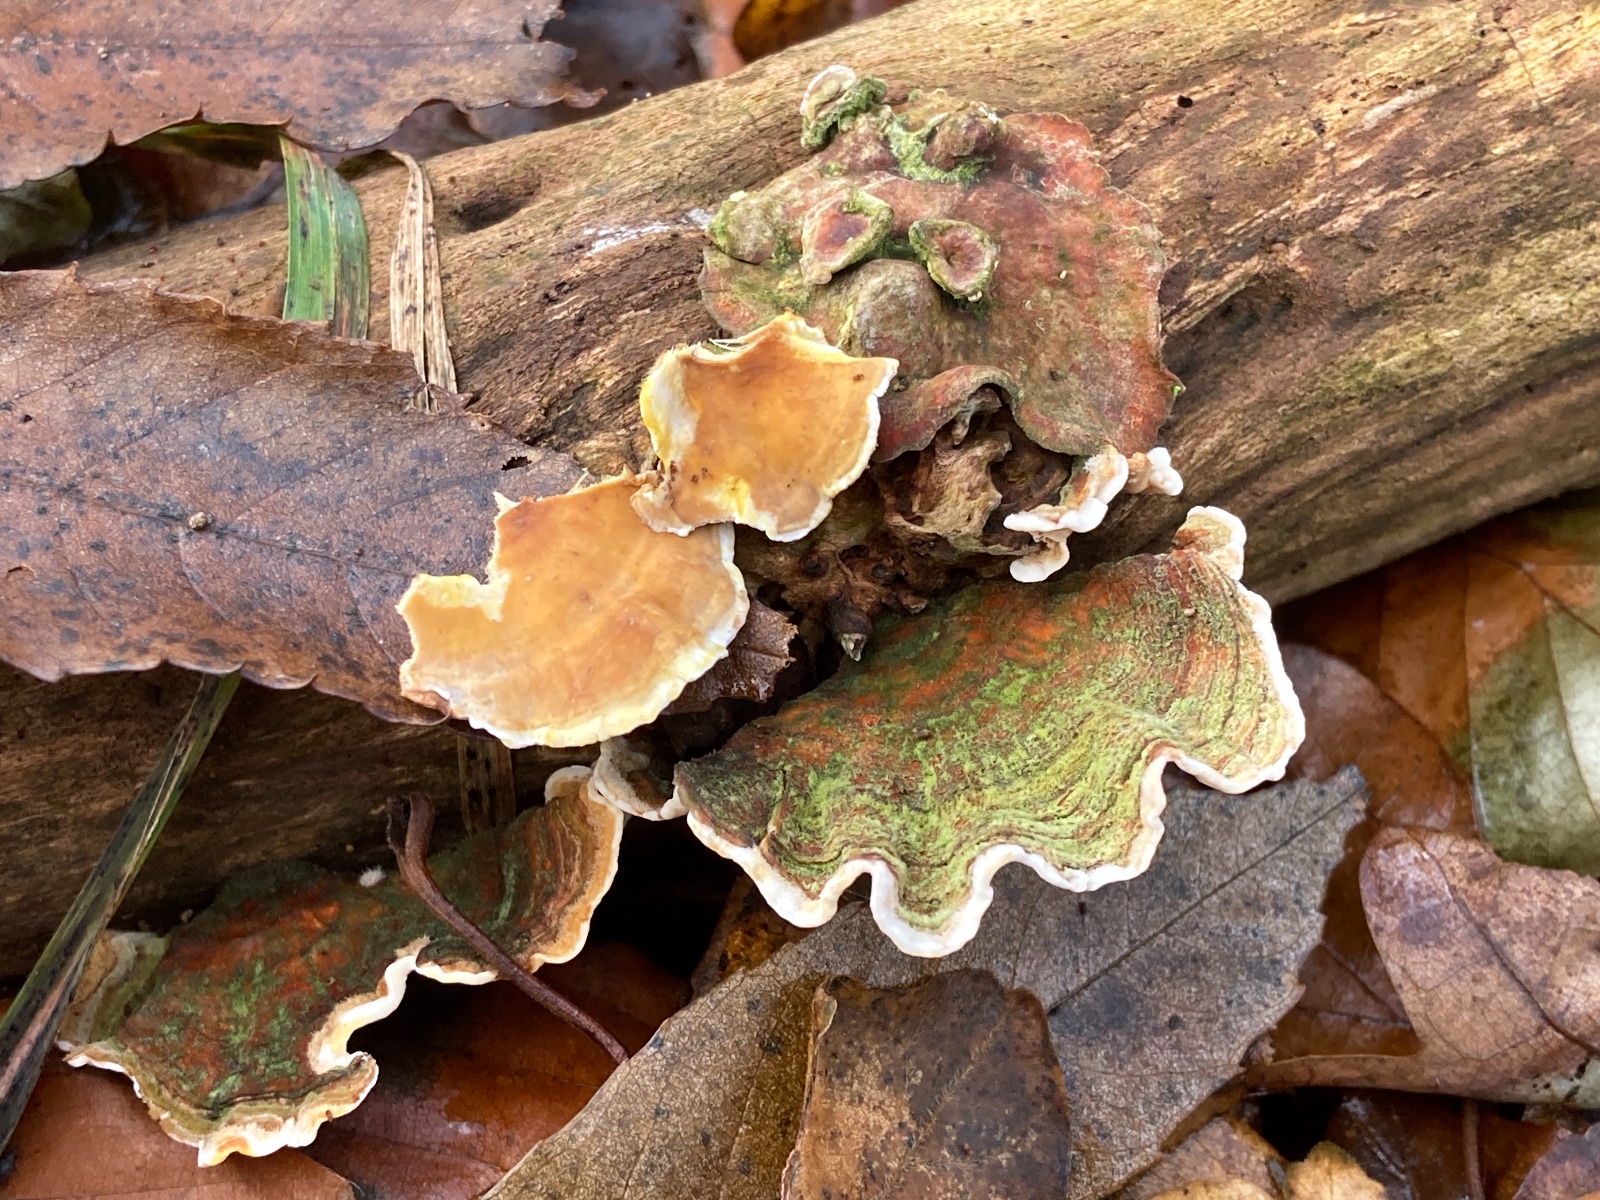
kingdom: Fungi
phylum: Basidiomycota
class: Agaricomycetes
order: Russulales
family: Stereaceae
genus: Stereum
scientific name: Stereum subtomentosum
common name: smuk lædersvamp
